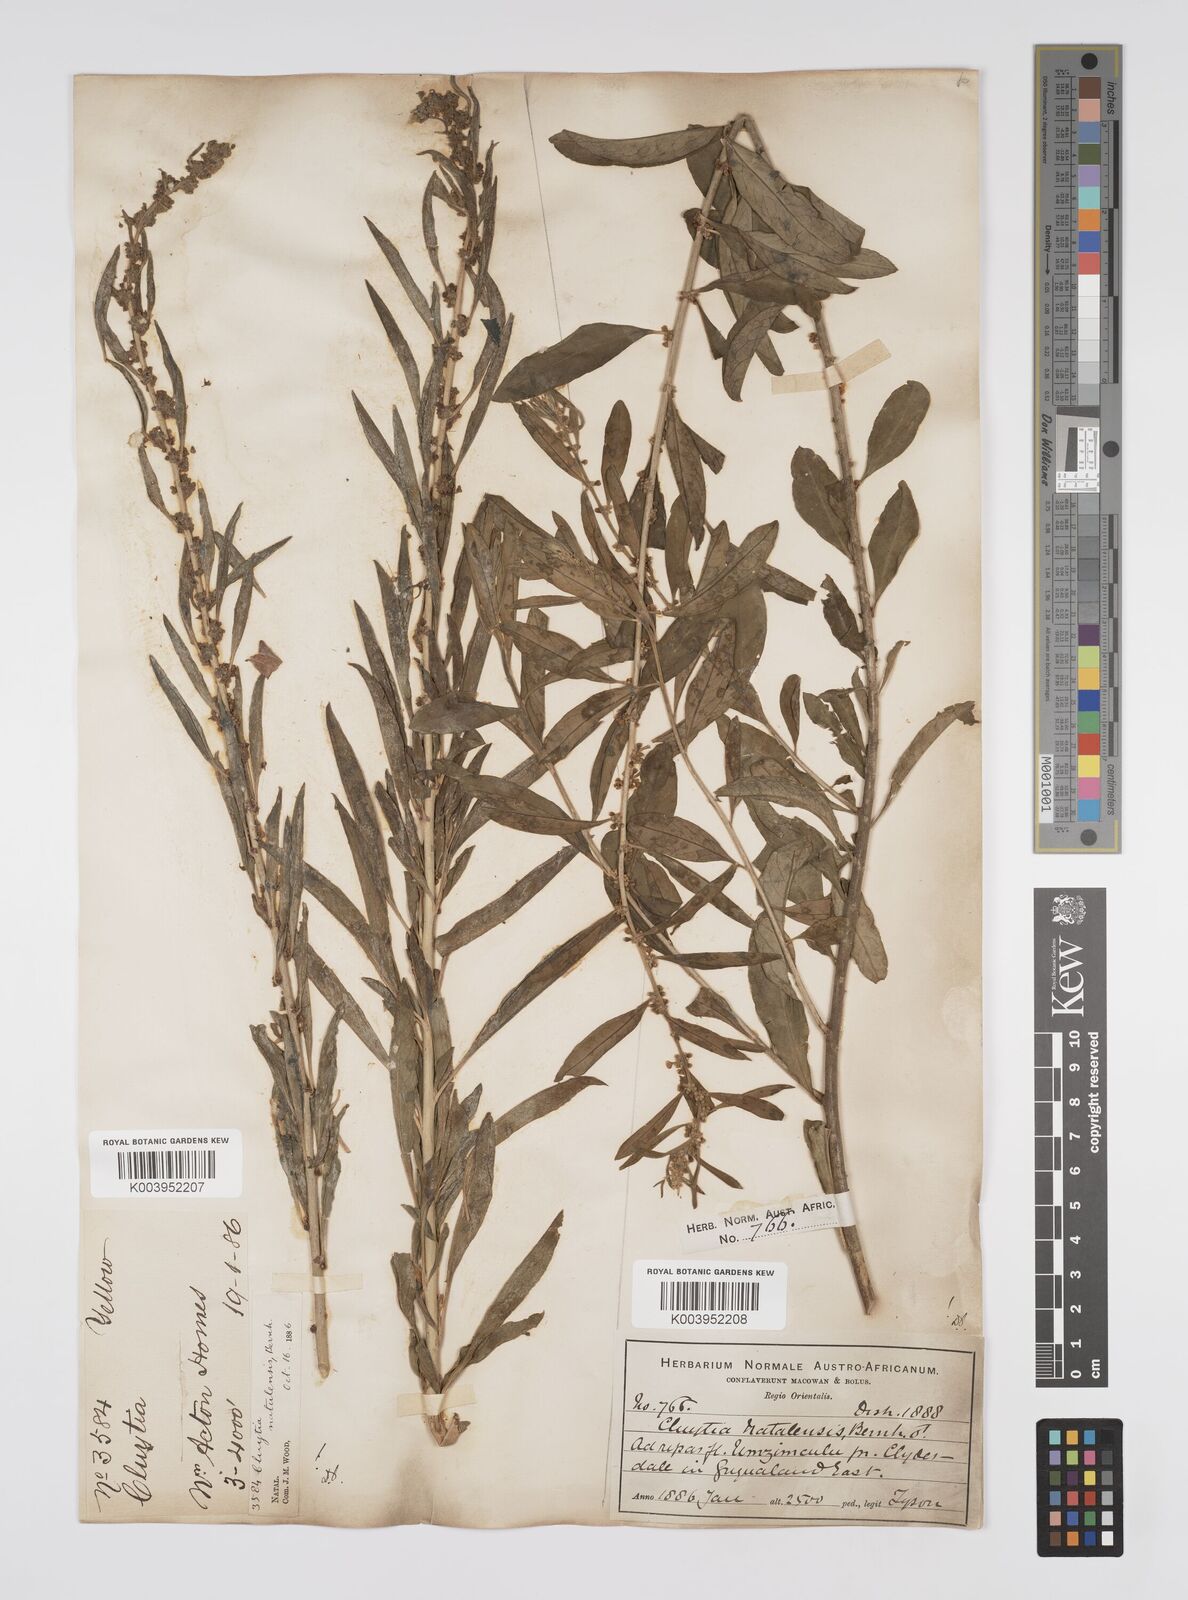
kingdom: Plantae
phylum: Tracheophyta
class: Magnoliopsida
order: Malpighiales
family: Peraceae
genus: Clutia
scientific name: Clutia natalensis
